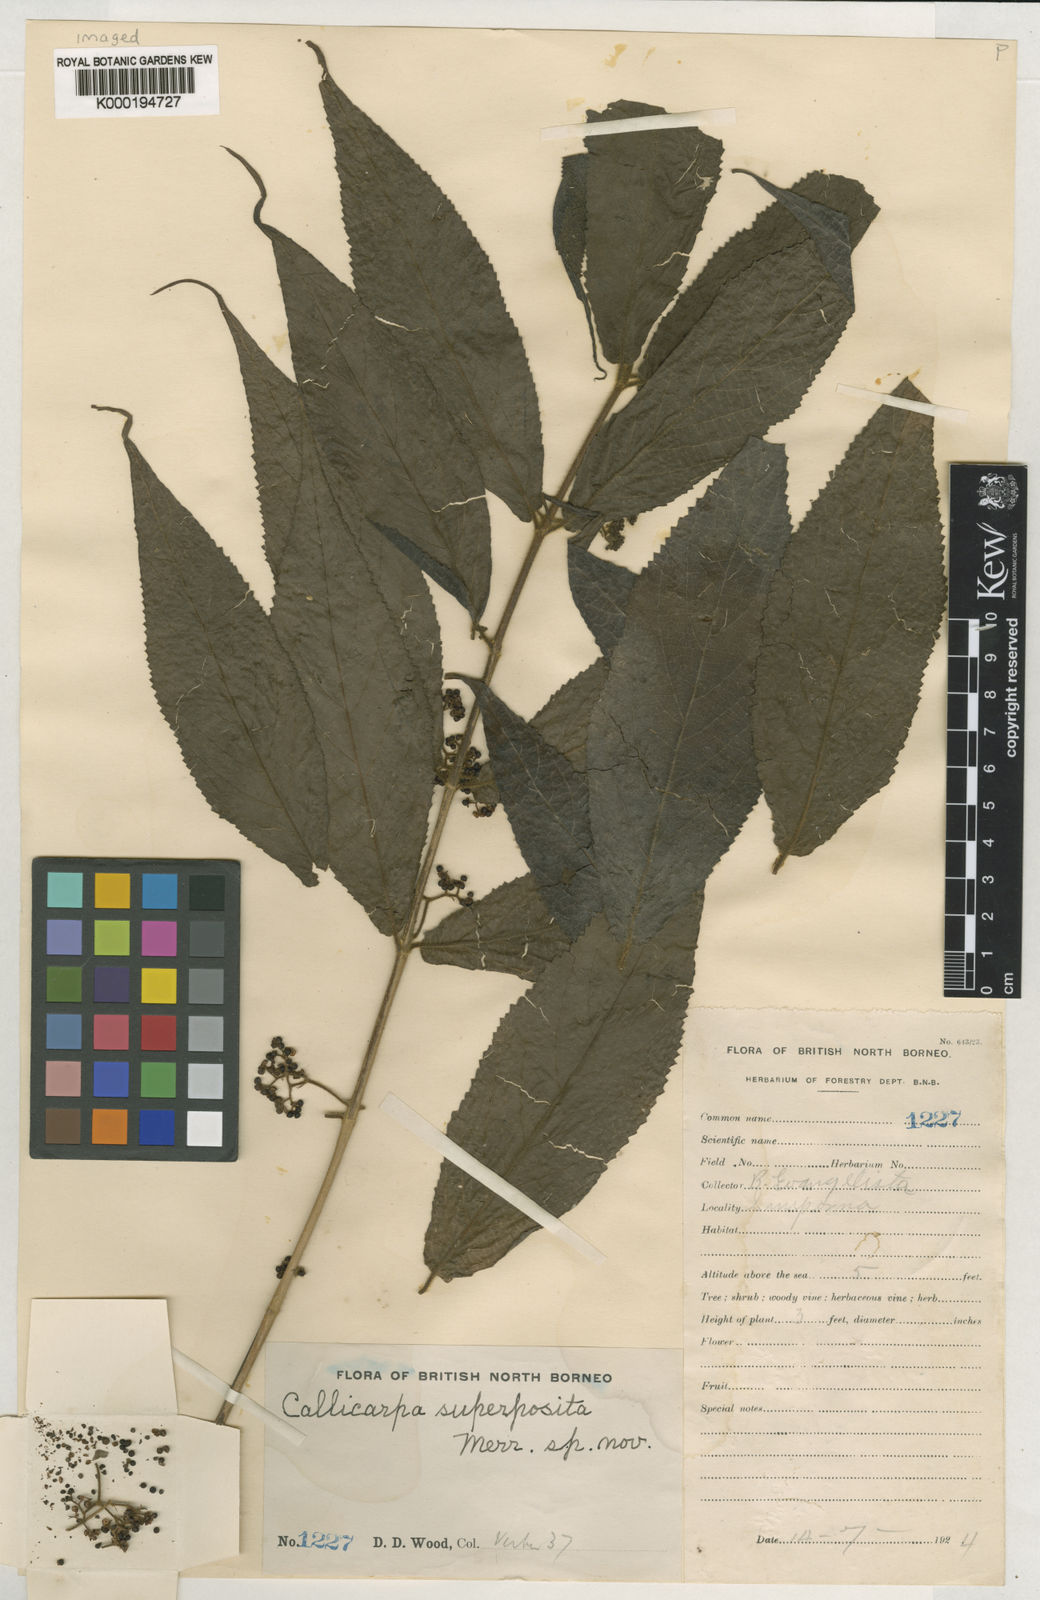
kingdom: Plantae
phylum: Tracheophyta
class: Magnoliopsida
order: Lamiales
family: Lamiaceae
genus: Callicarpa
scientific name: Callicarpa superposita
